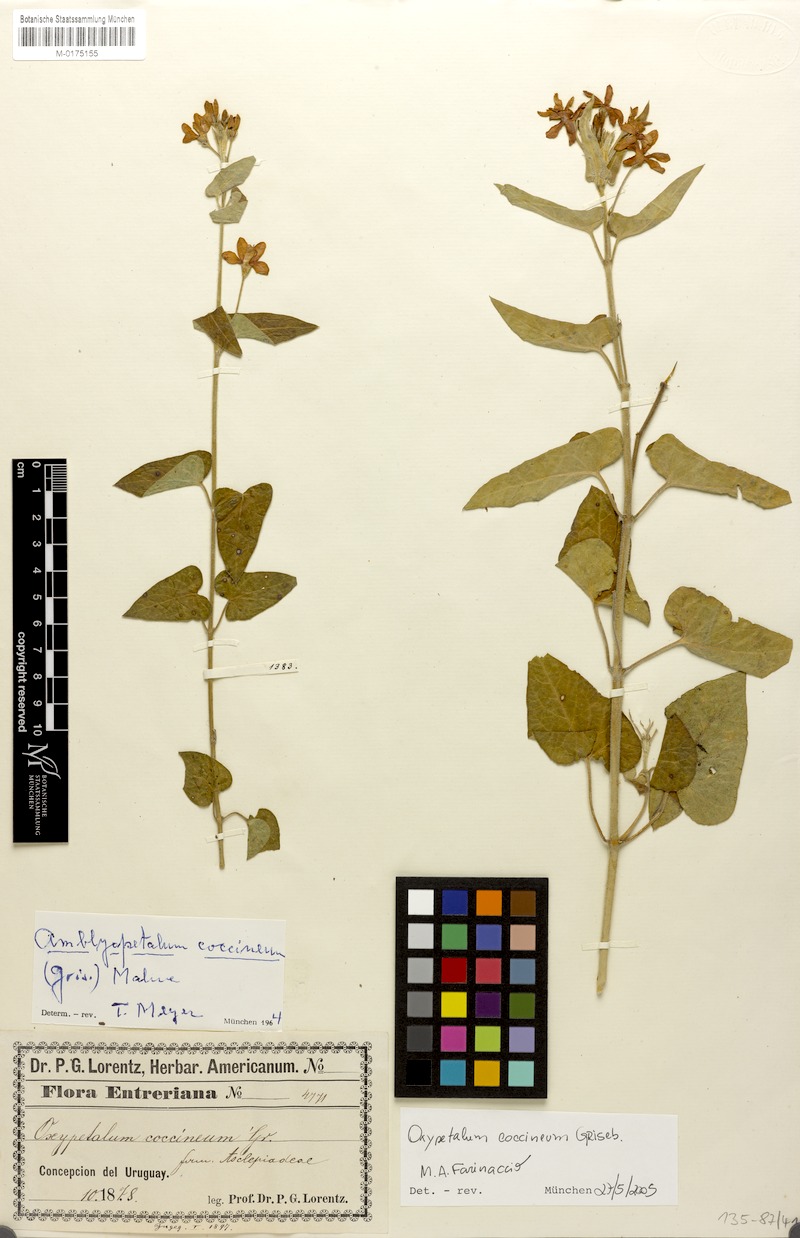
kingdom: Plantae
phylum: Tracheophyta
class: Magnoliopsida
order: Gentianales
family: Apocynaceae
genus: Oxypetalum
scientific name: Oxypetalum coccineum
